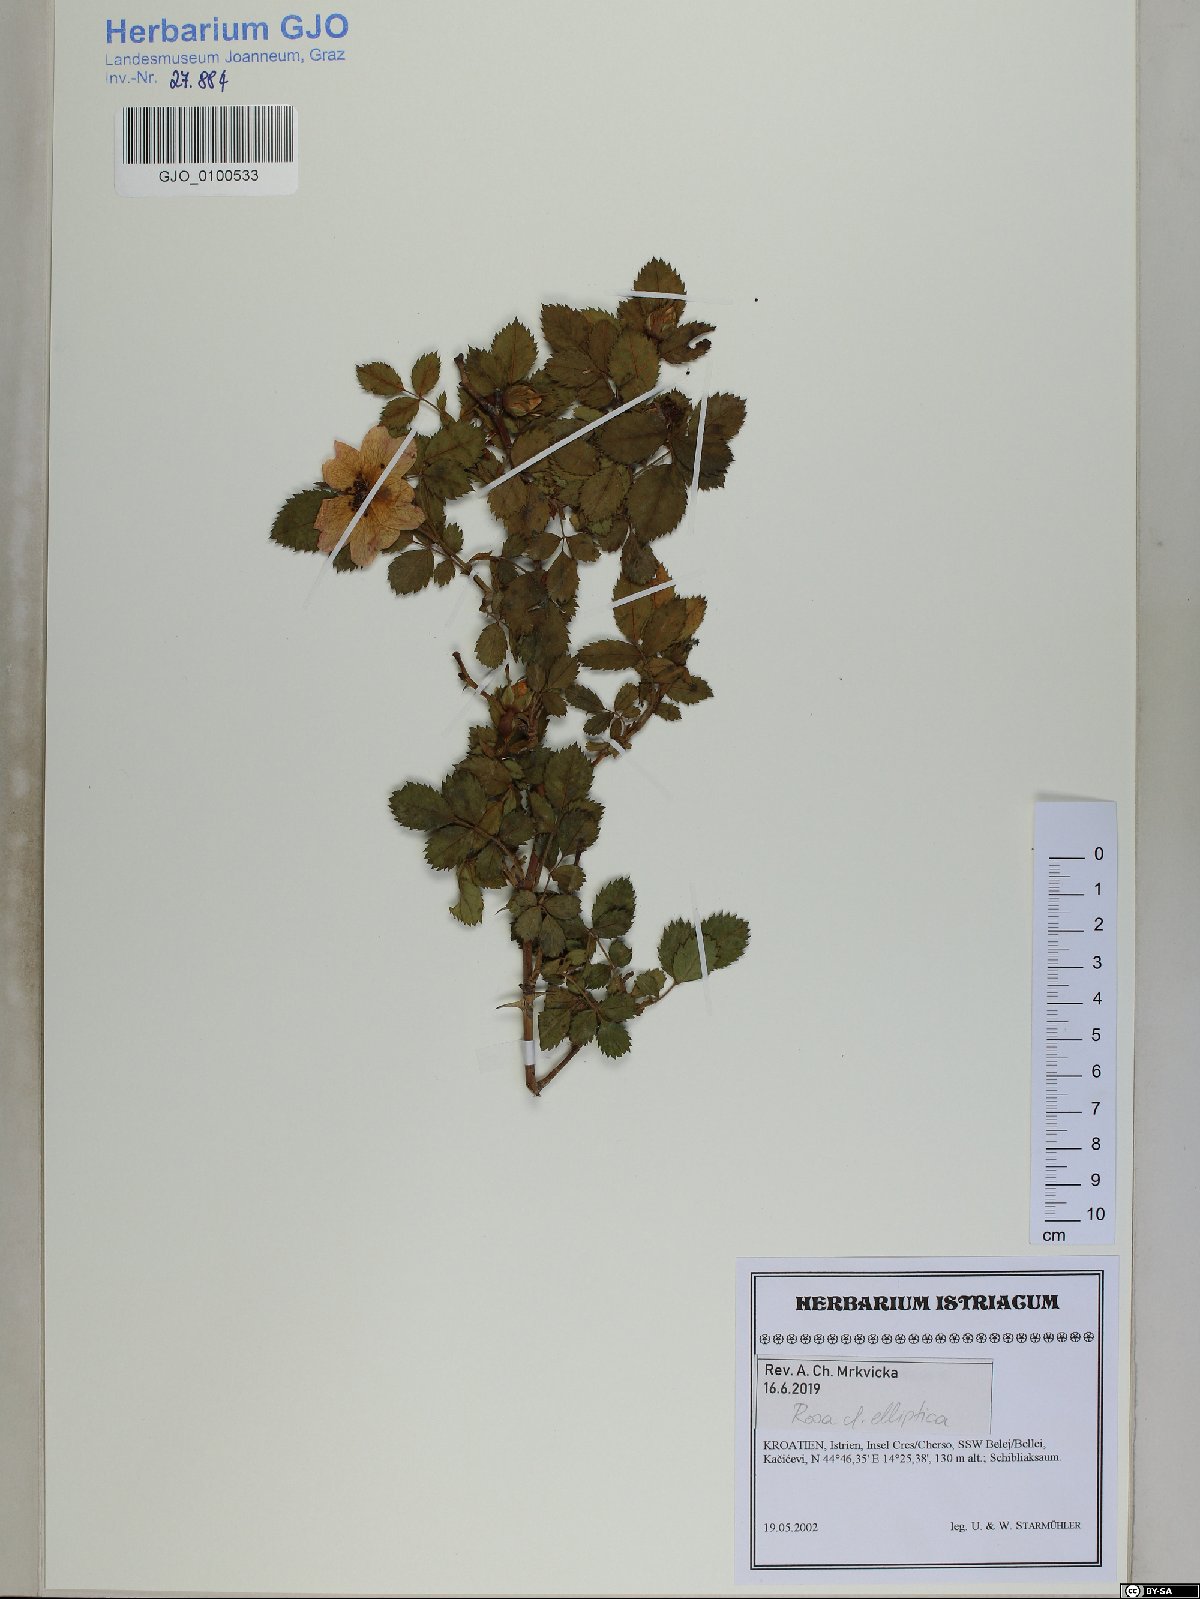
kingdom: Plantae
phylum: Tracheophyta
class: Magnoliopsida
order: Rosales
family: Rosaceae
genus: Rosa
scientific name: Rosa inodora
